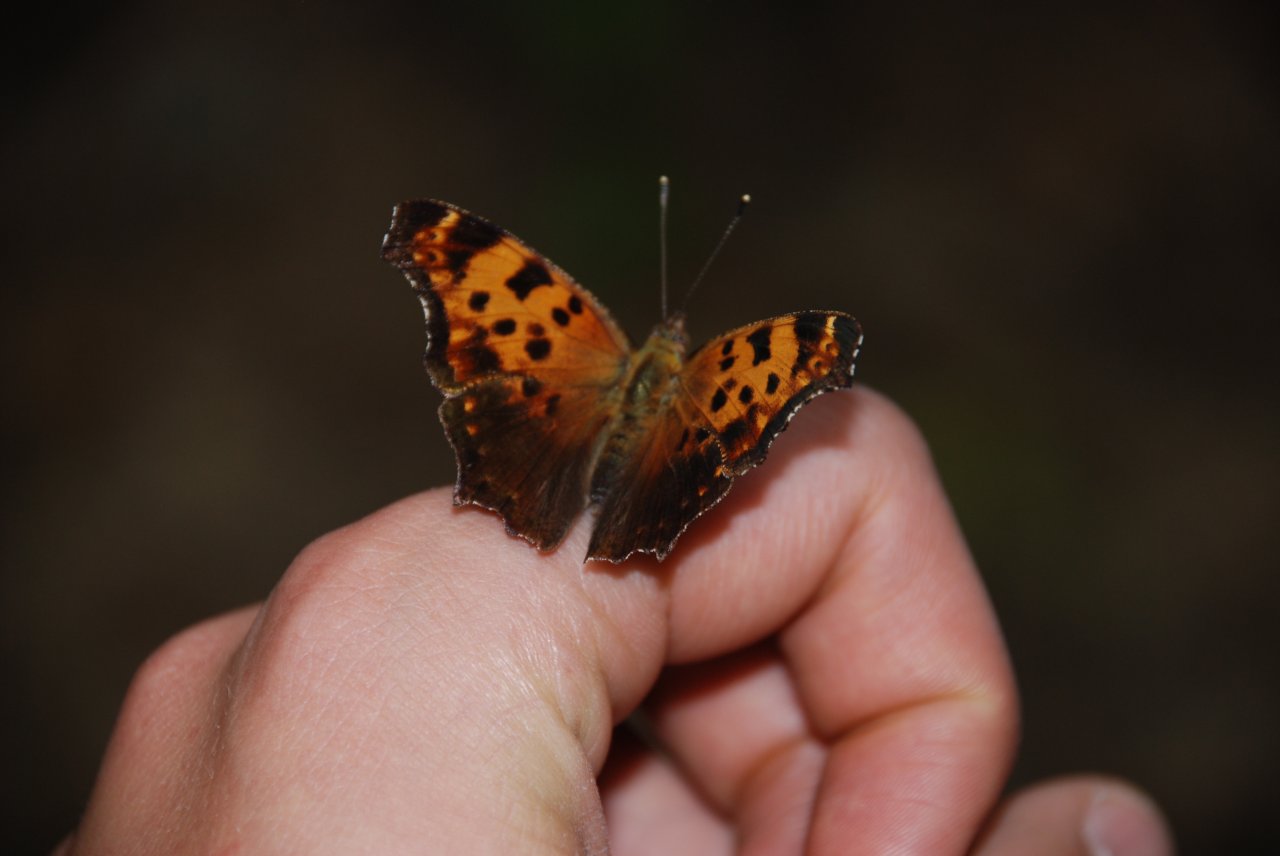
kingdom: Animalia
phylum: Arthropoda
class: Insecta
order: Lepidoptera
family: Nymphalidae
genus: Polygonia
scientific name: Polygonia comma
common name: Eastern Comma
